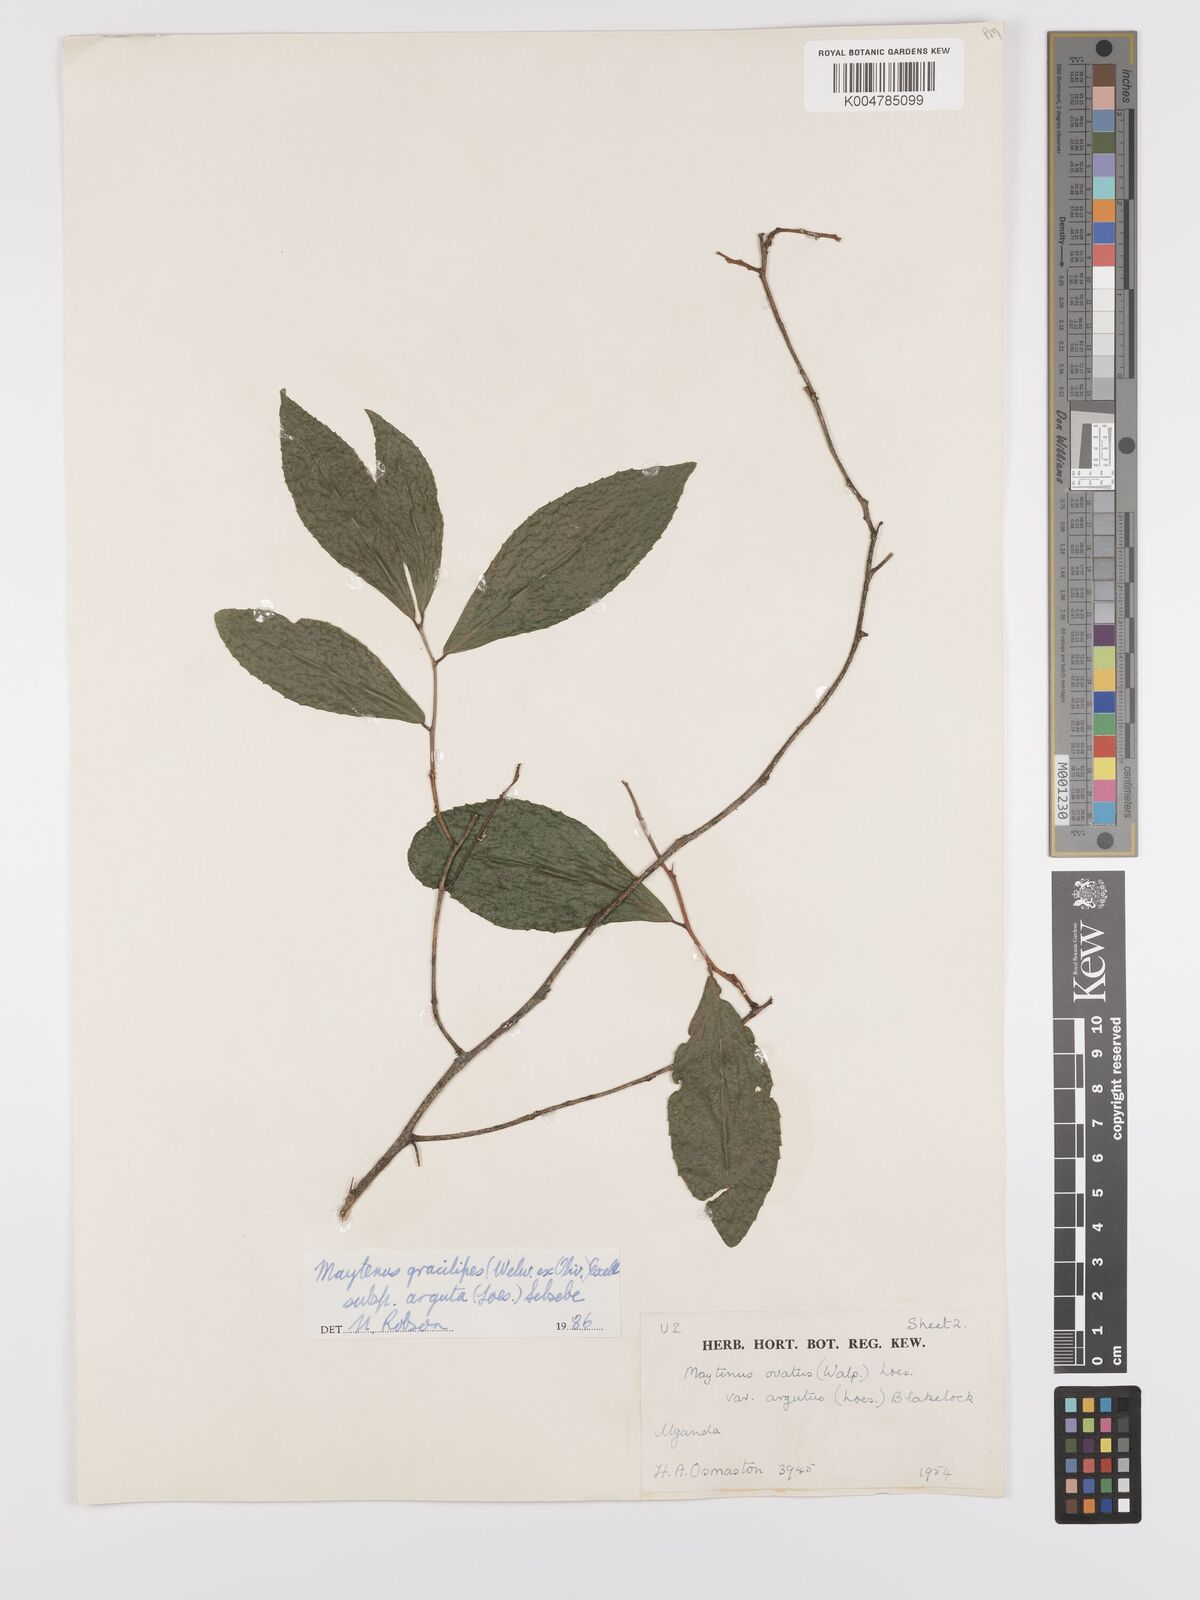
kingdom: Plantae
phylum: Tracheophyta
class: Magnoliopsida
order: Celastrales
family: Celastraceae
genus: Gymnosporia
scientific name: Gymnosporia gracilipes
